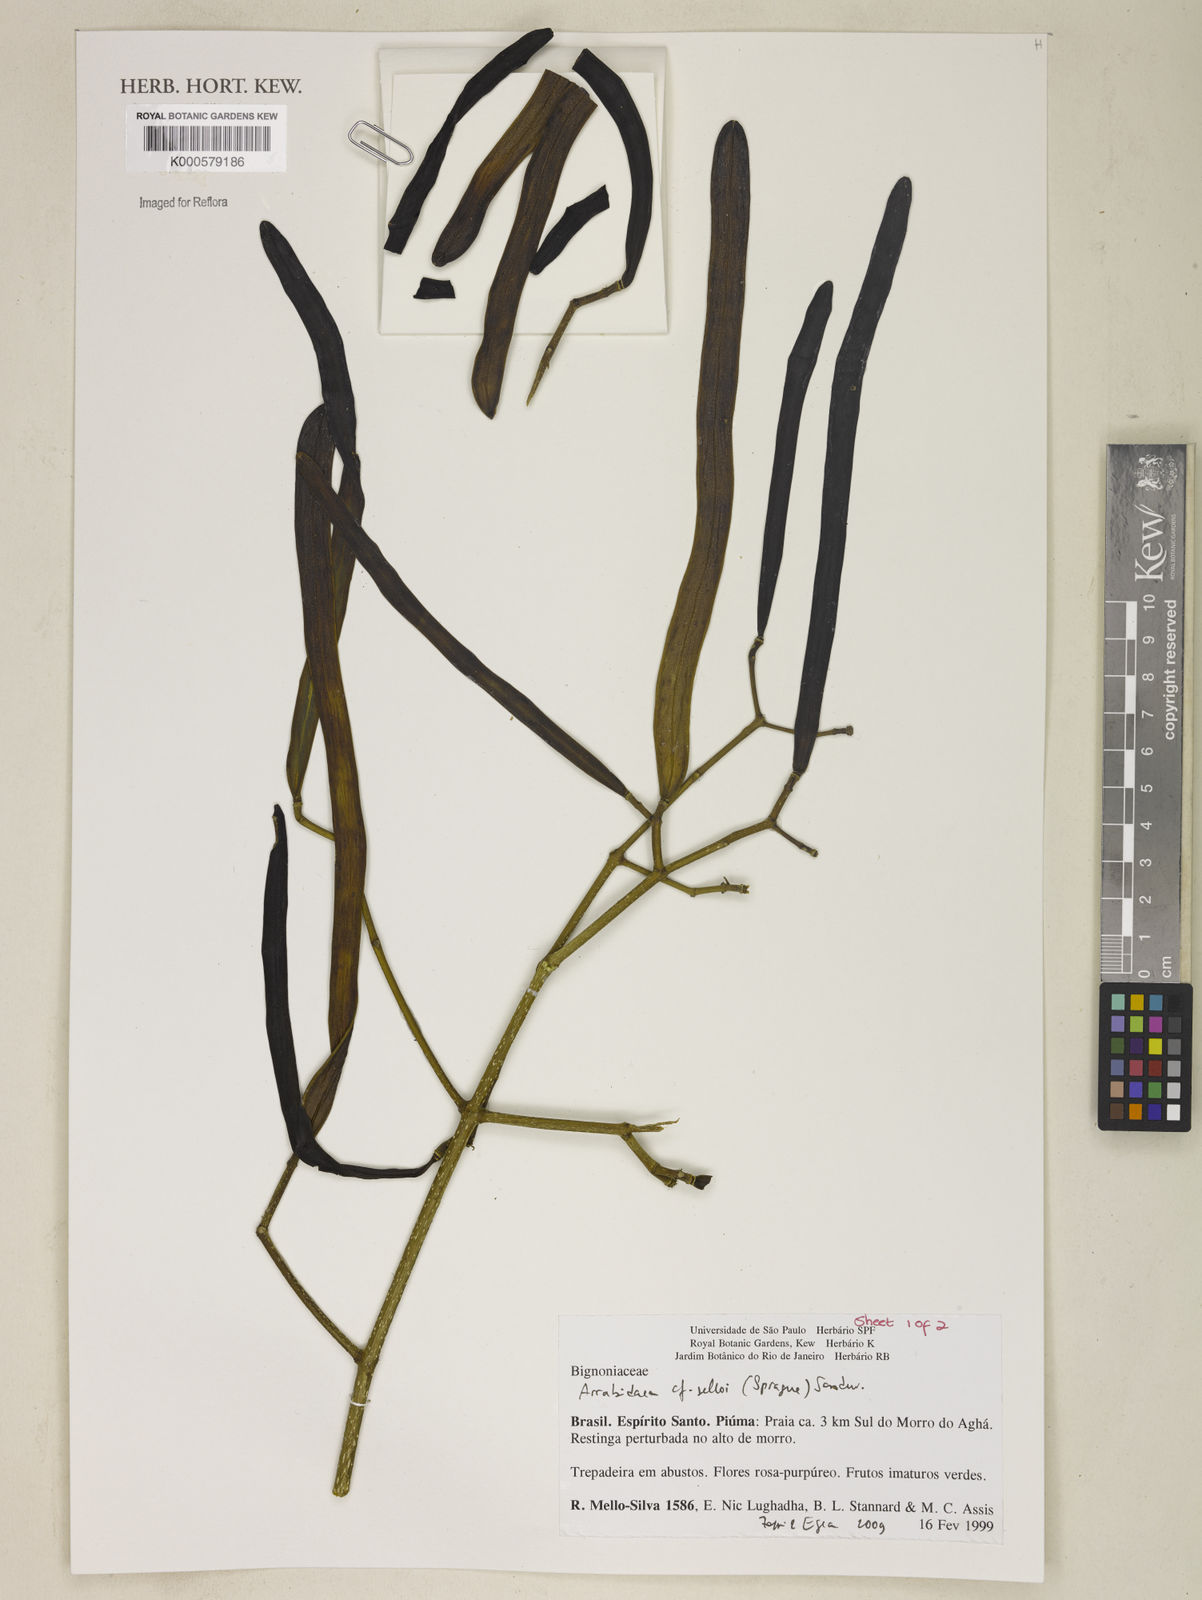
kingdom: Plantae
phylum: Tracheophyta
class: Magnoliopsida
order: Lamiales
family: Bignoniaceae
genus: Tanaecium
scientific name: Tanaecium selloi
